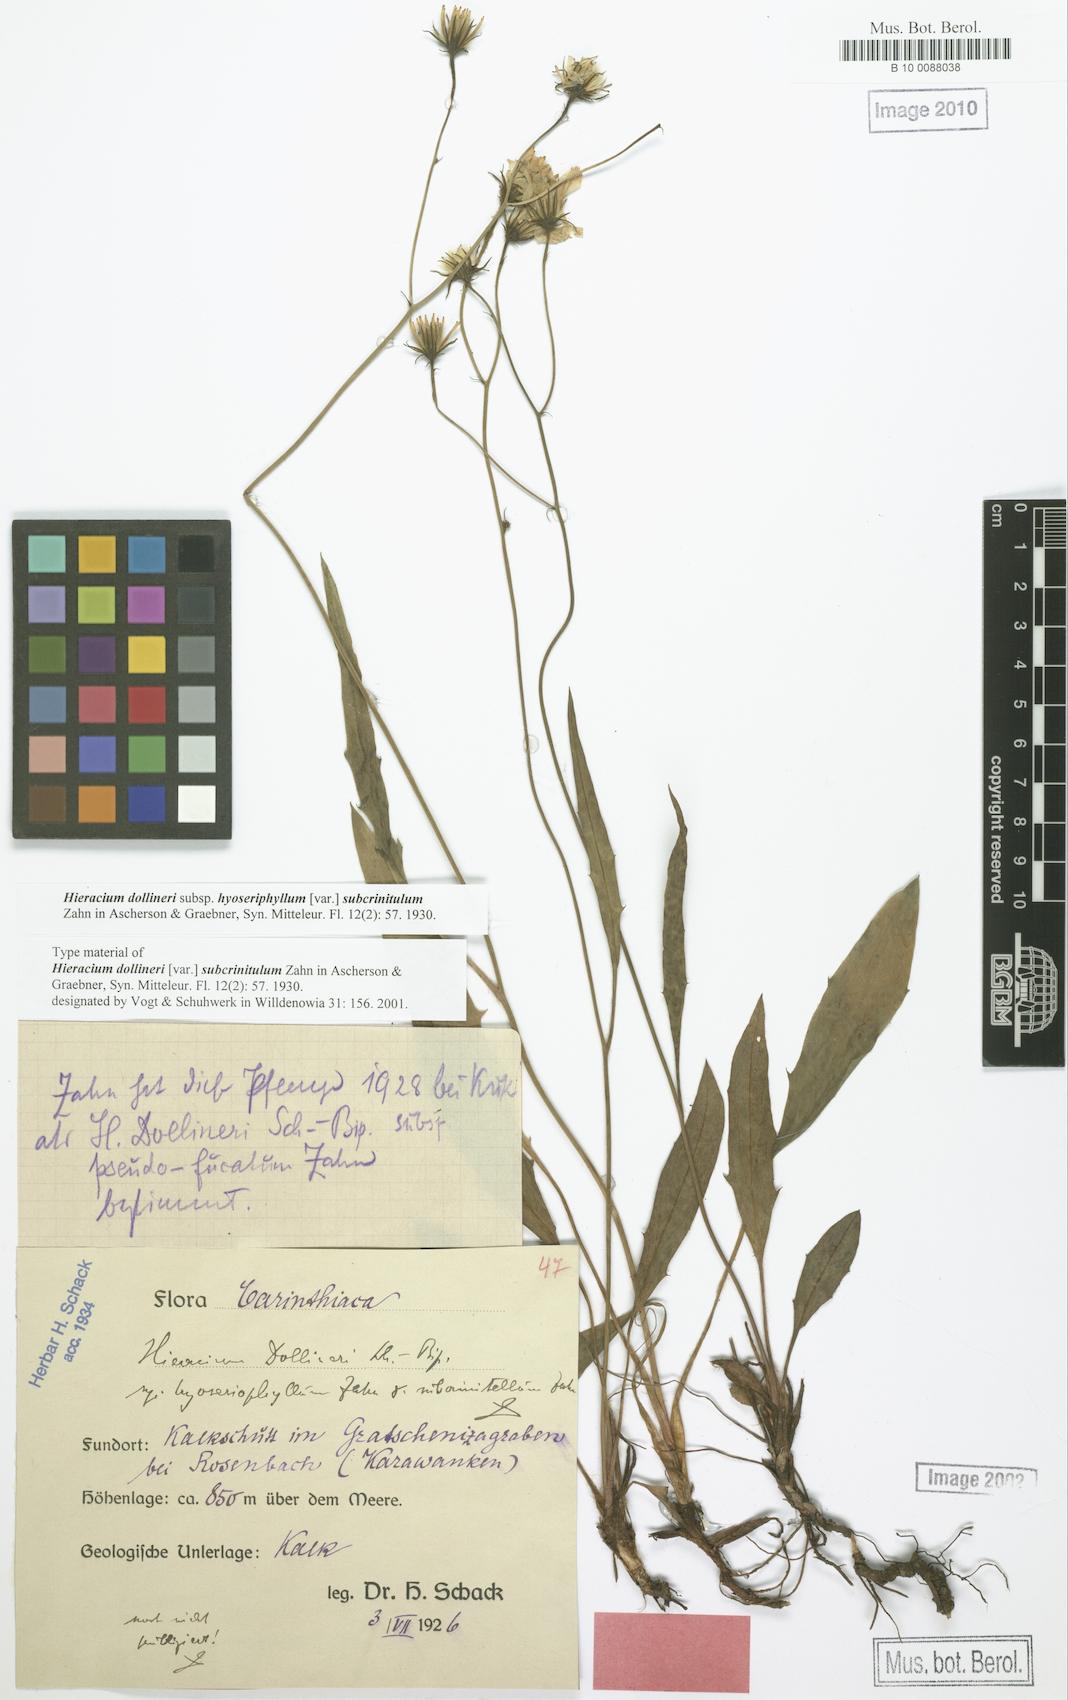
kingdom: Plantae
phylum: Tracheophyta
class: Magnoliopsida
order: Asterales
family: Asteraceae
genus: Hieracium
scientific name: Hieracium dollineri
